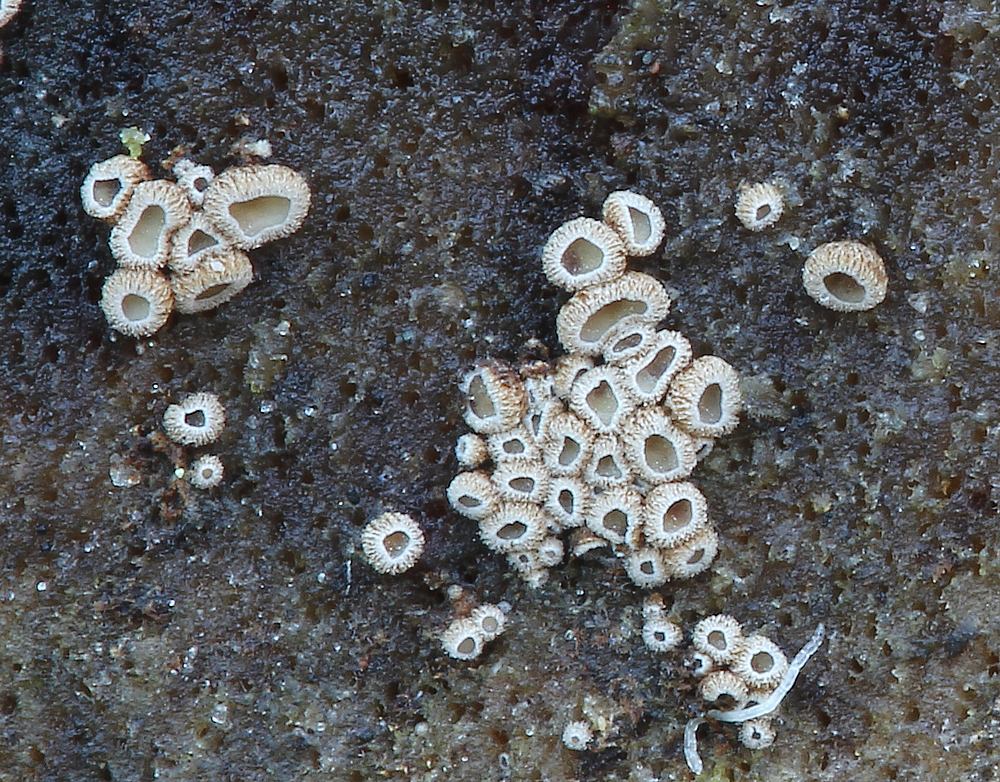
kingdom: Fungi
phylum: Basidiomycota
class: Agaricomycetes
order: Agaricales
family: Niaceae
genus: Merismodes
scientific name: Merismodes
